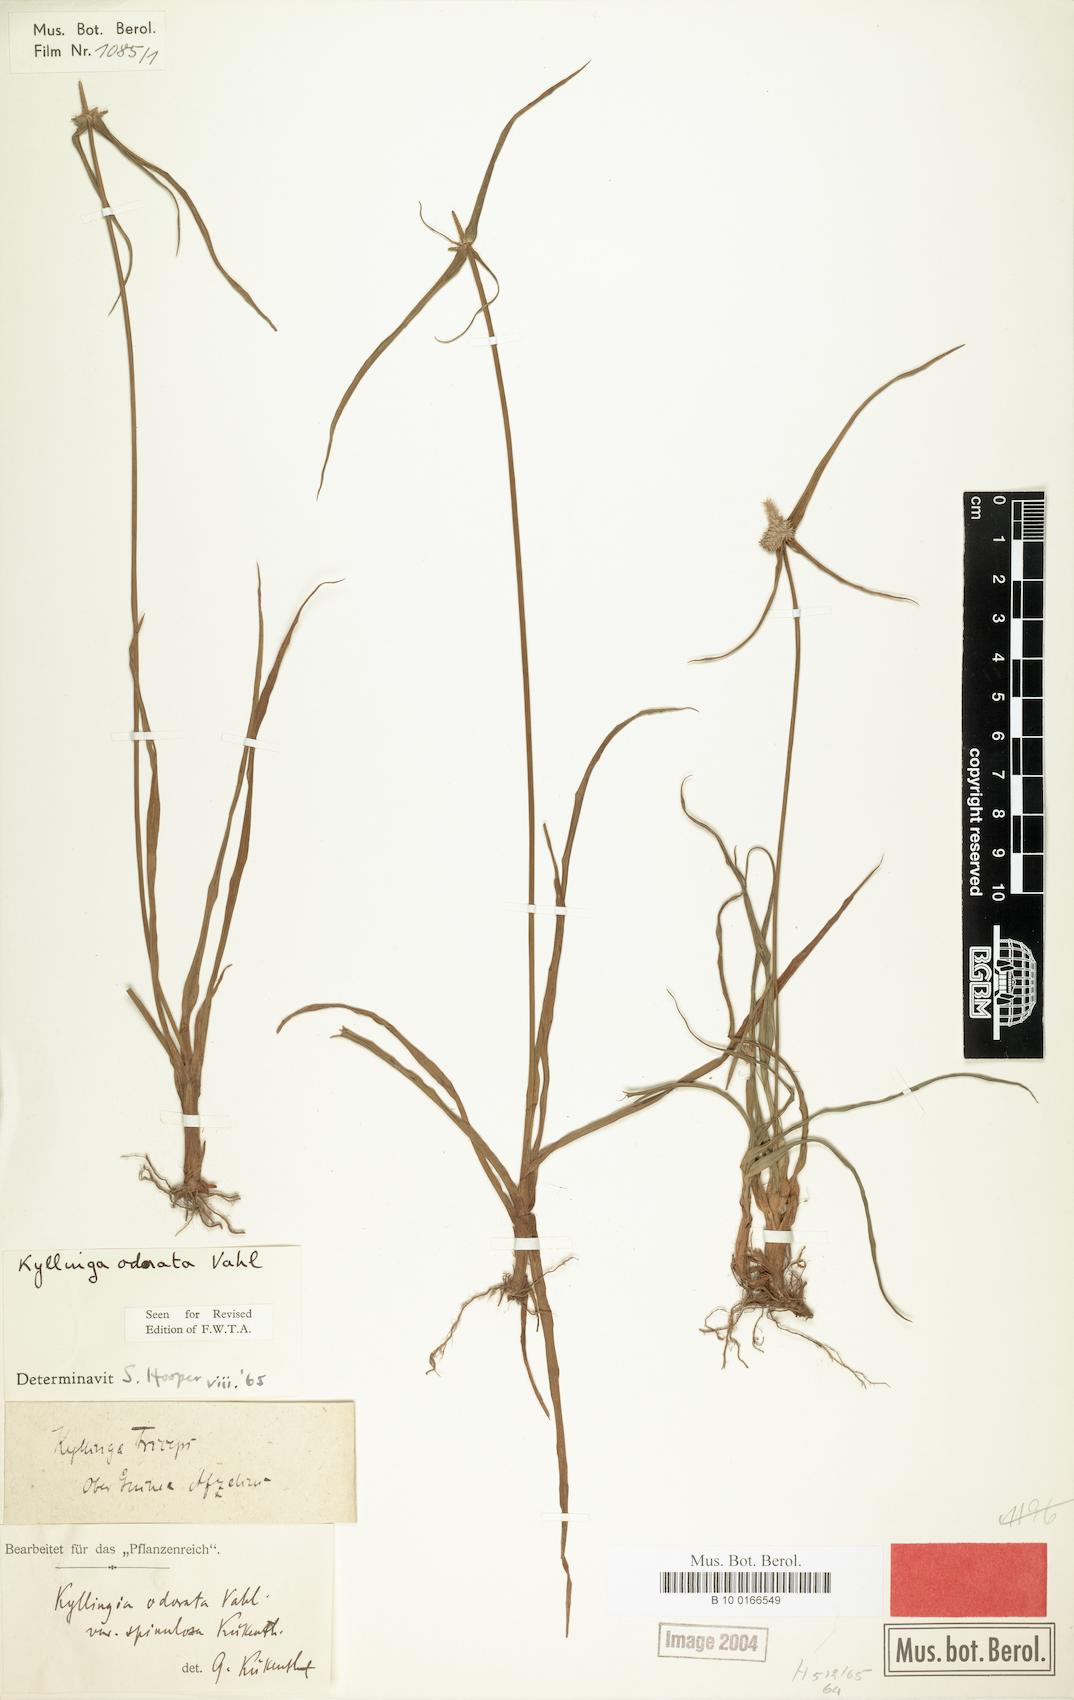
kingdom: Plantae
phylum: Tracheophyta
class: Liliopsida
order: Poales
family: Cyperaceae
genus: Cyperus
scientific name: Cyperus sesquiflorus
